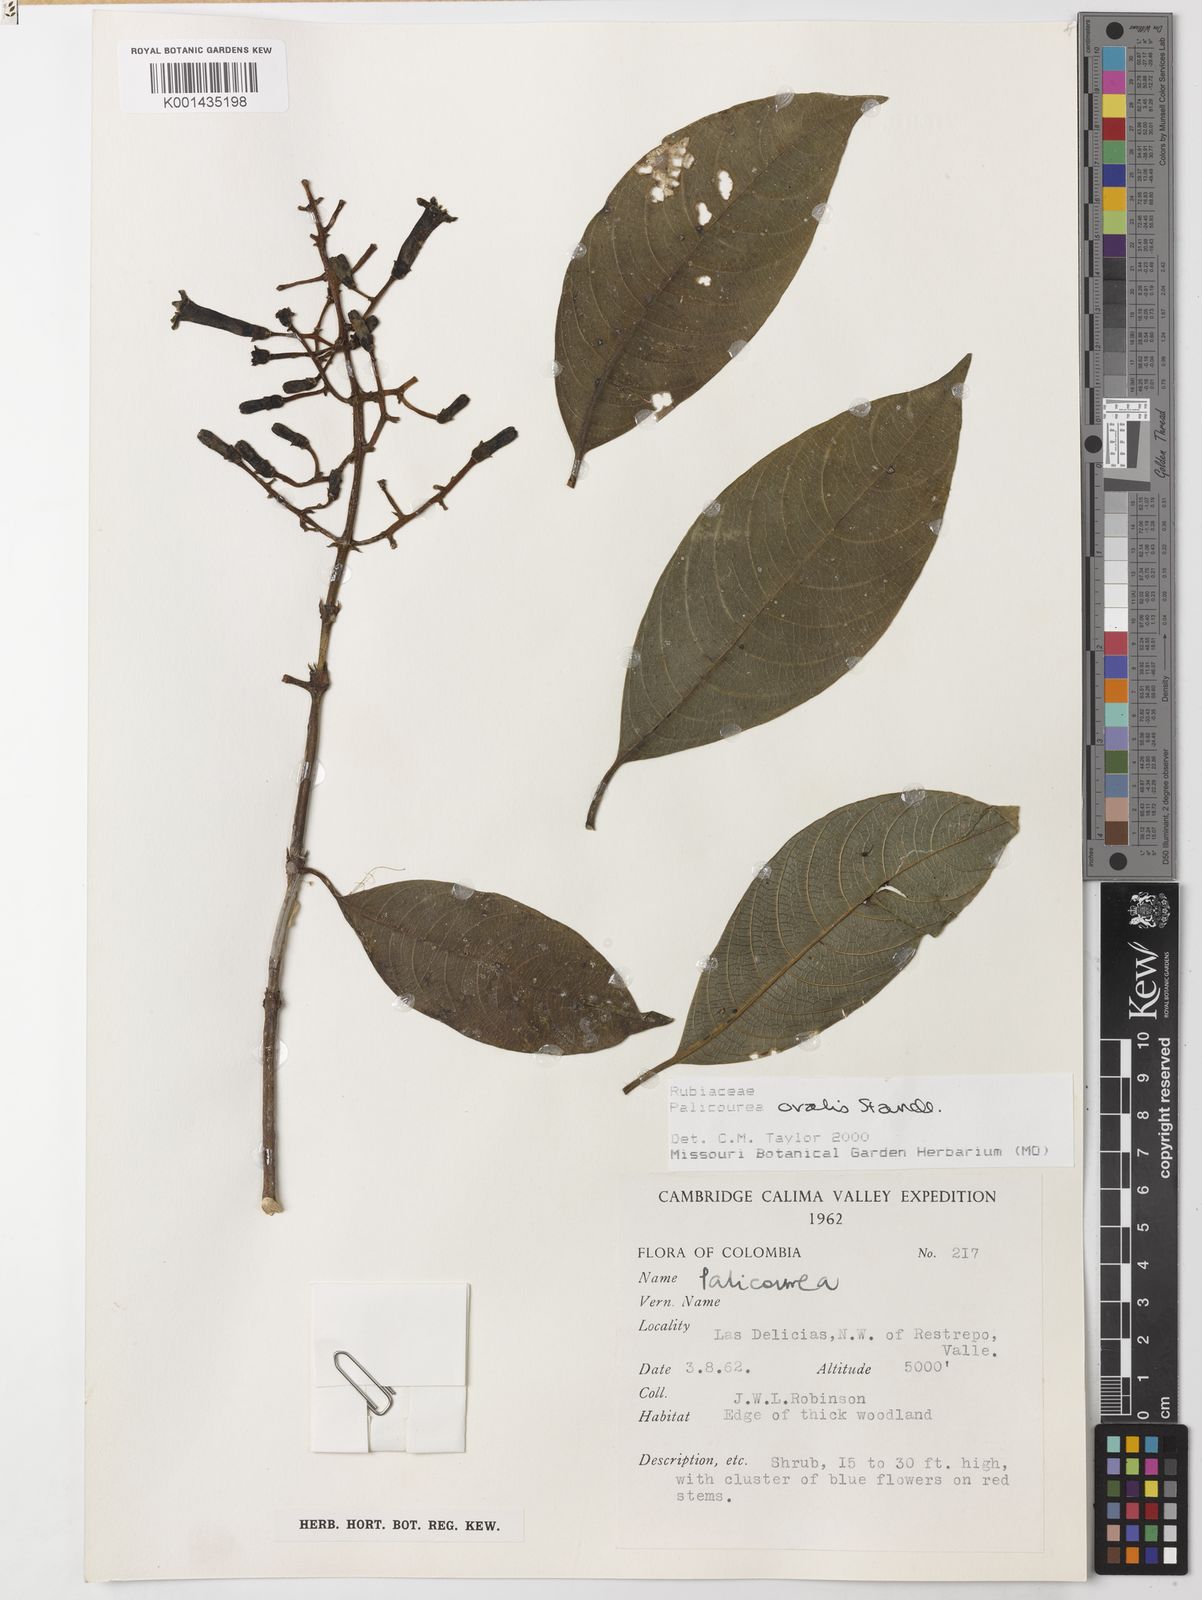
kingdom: Plantae
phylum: Tracheophyta
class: Magnoliopsida
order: Gentianales
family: Rubiaceae
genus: Palicourea
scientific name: Palicourea ovalis
